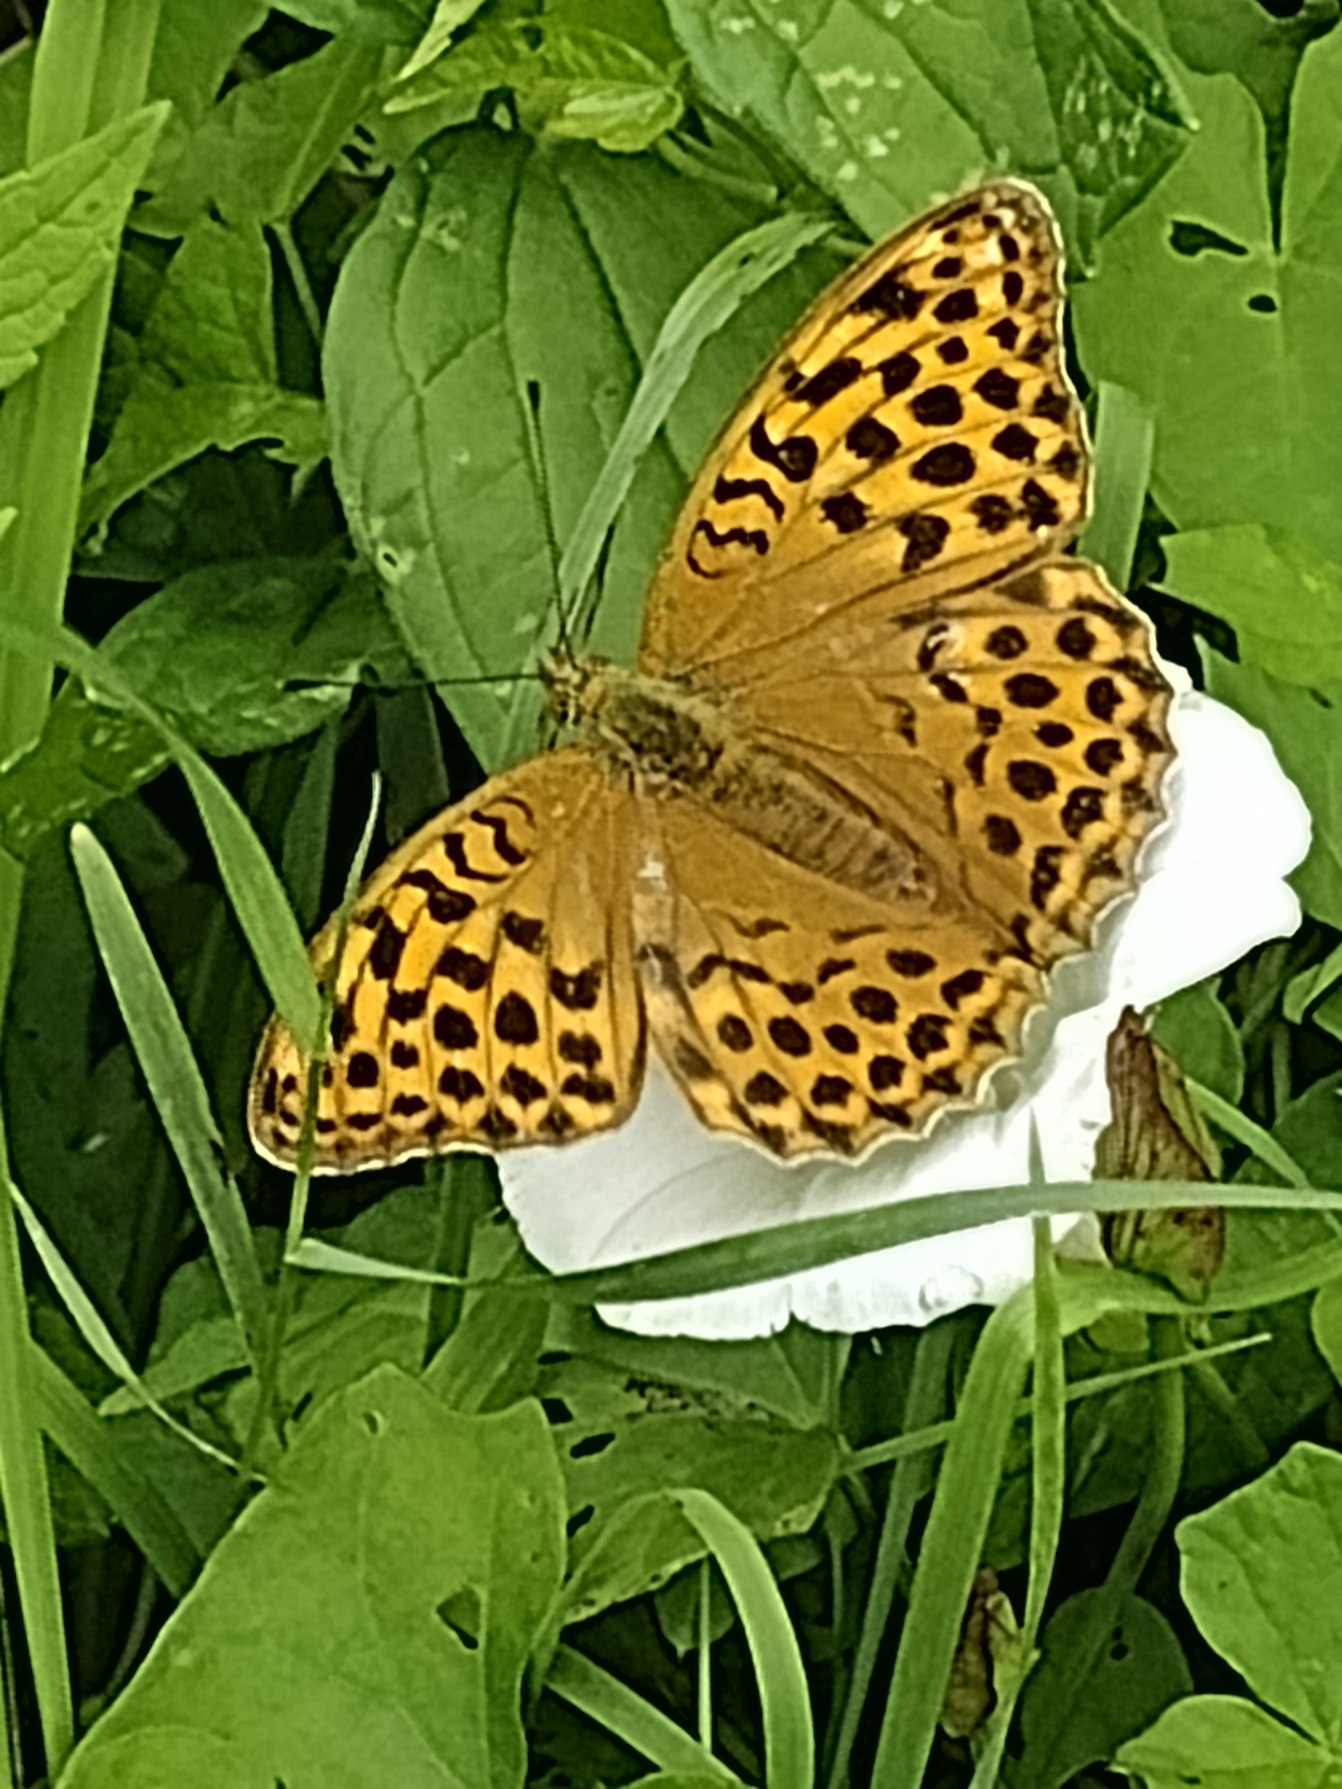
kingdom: Animalia
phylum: Arthropoda
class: Insecta
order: Lepidoptera
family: Nymphalidae
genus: Argynnis
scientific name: Argynnis paphia
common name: Kejserkåbe
